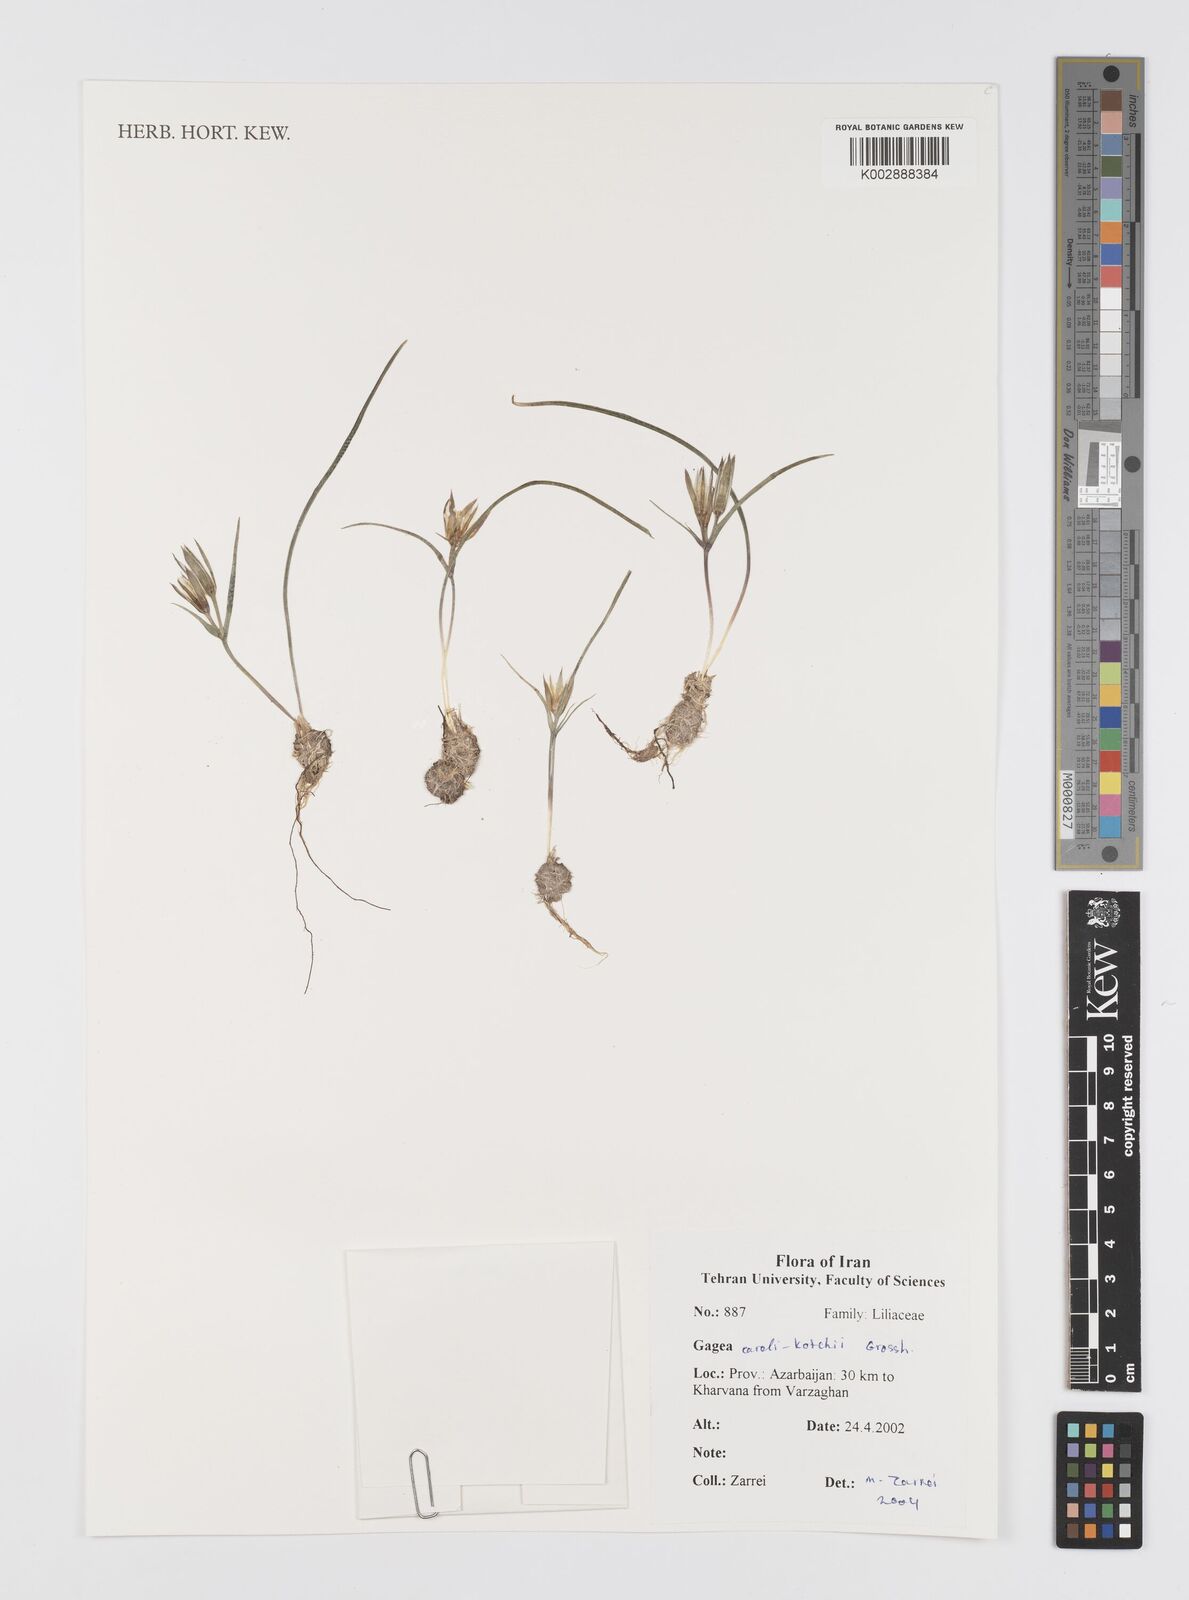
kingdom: Plantae
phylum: Tracheophyta
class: Liliopsida
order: Liliales
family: Liliaceae
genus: Gagea
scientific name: Gagea caroli-kochii
